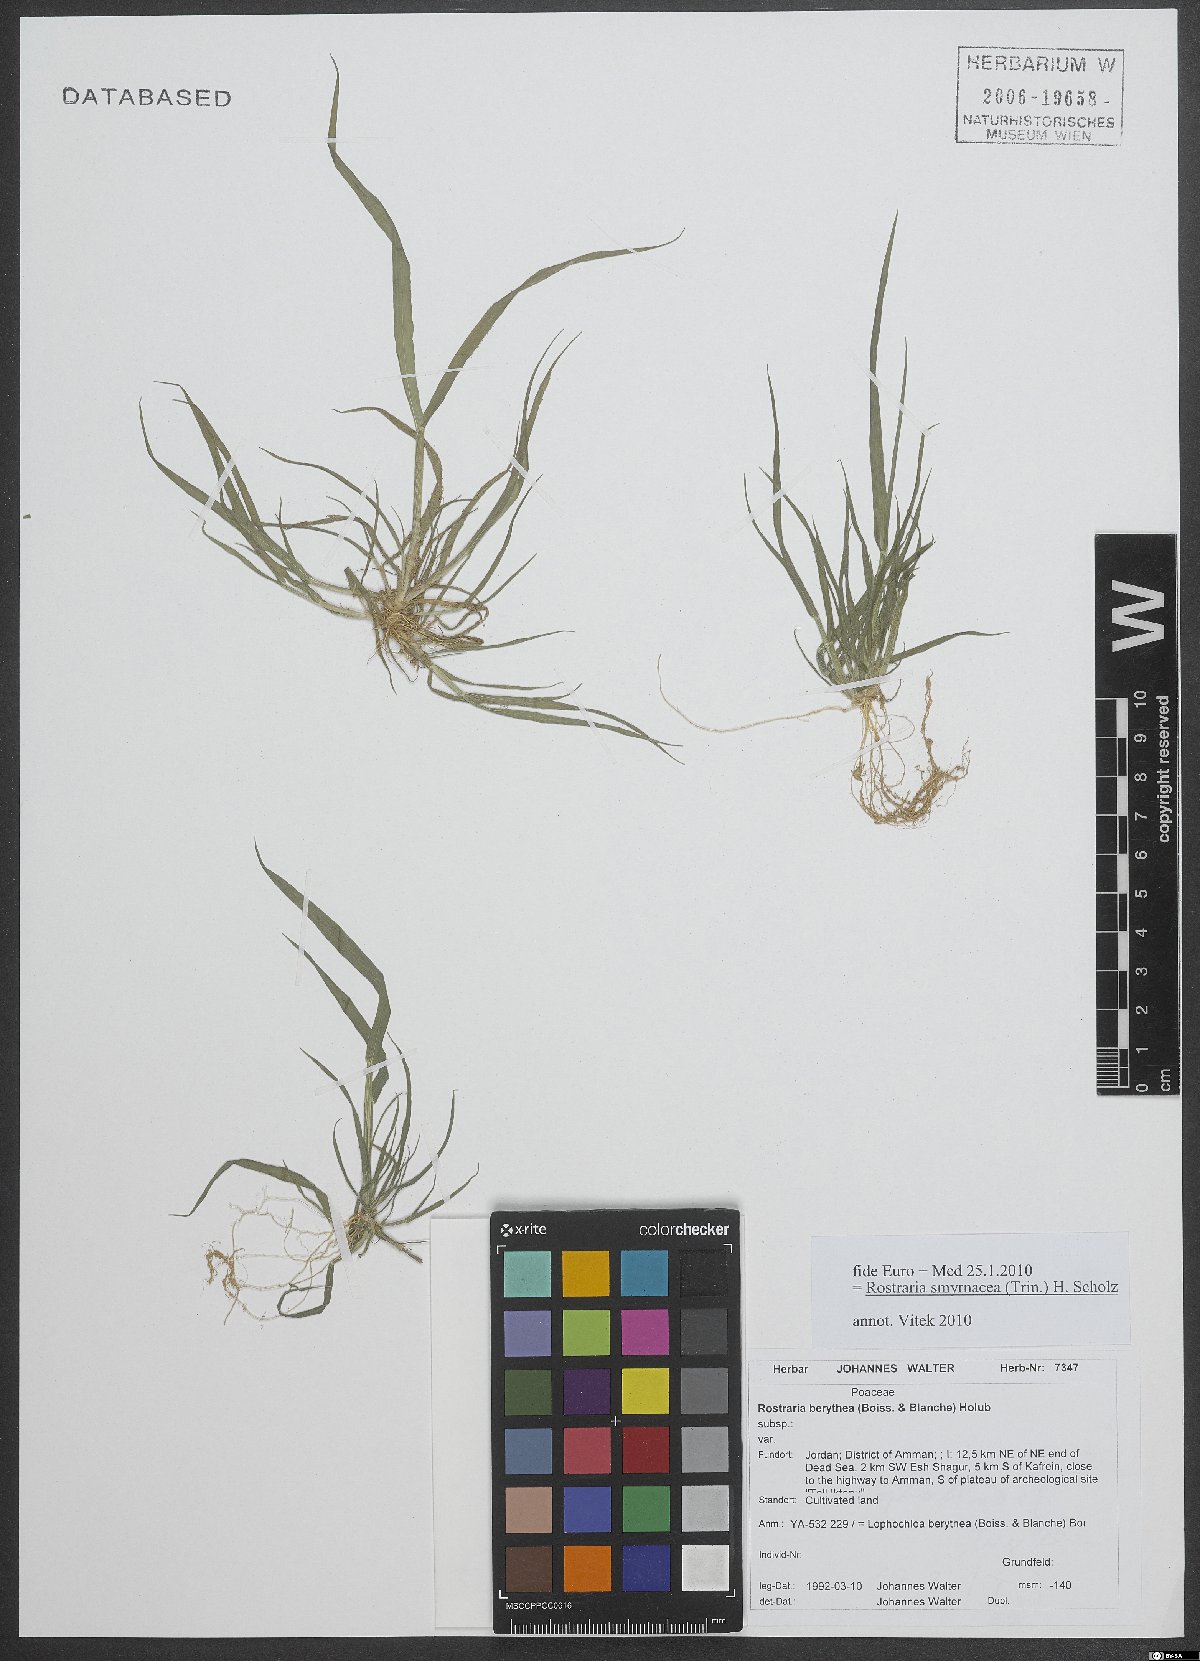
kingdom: Plantae
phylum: Tracheophyta
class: Liliopsida
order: Poales
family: Poaceae
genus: Rostraria
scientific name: Rostraria cristata
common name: Mediterranean hair-grass
